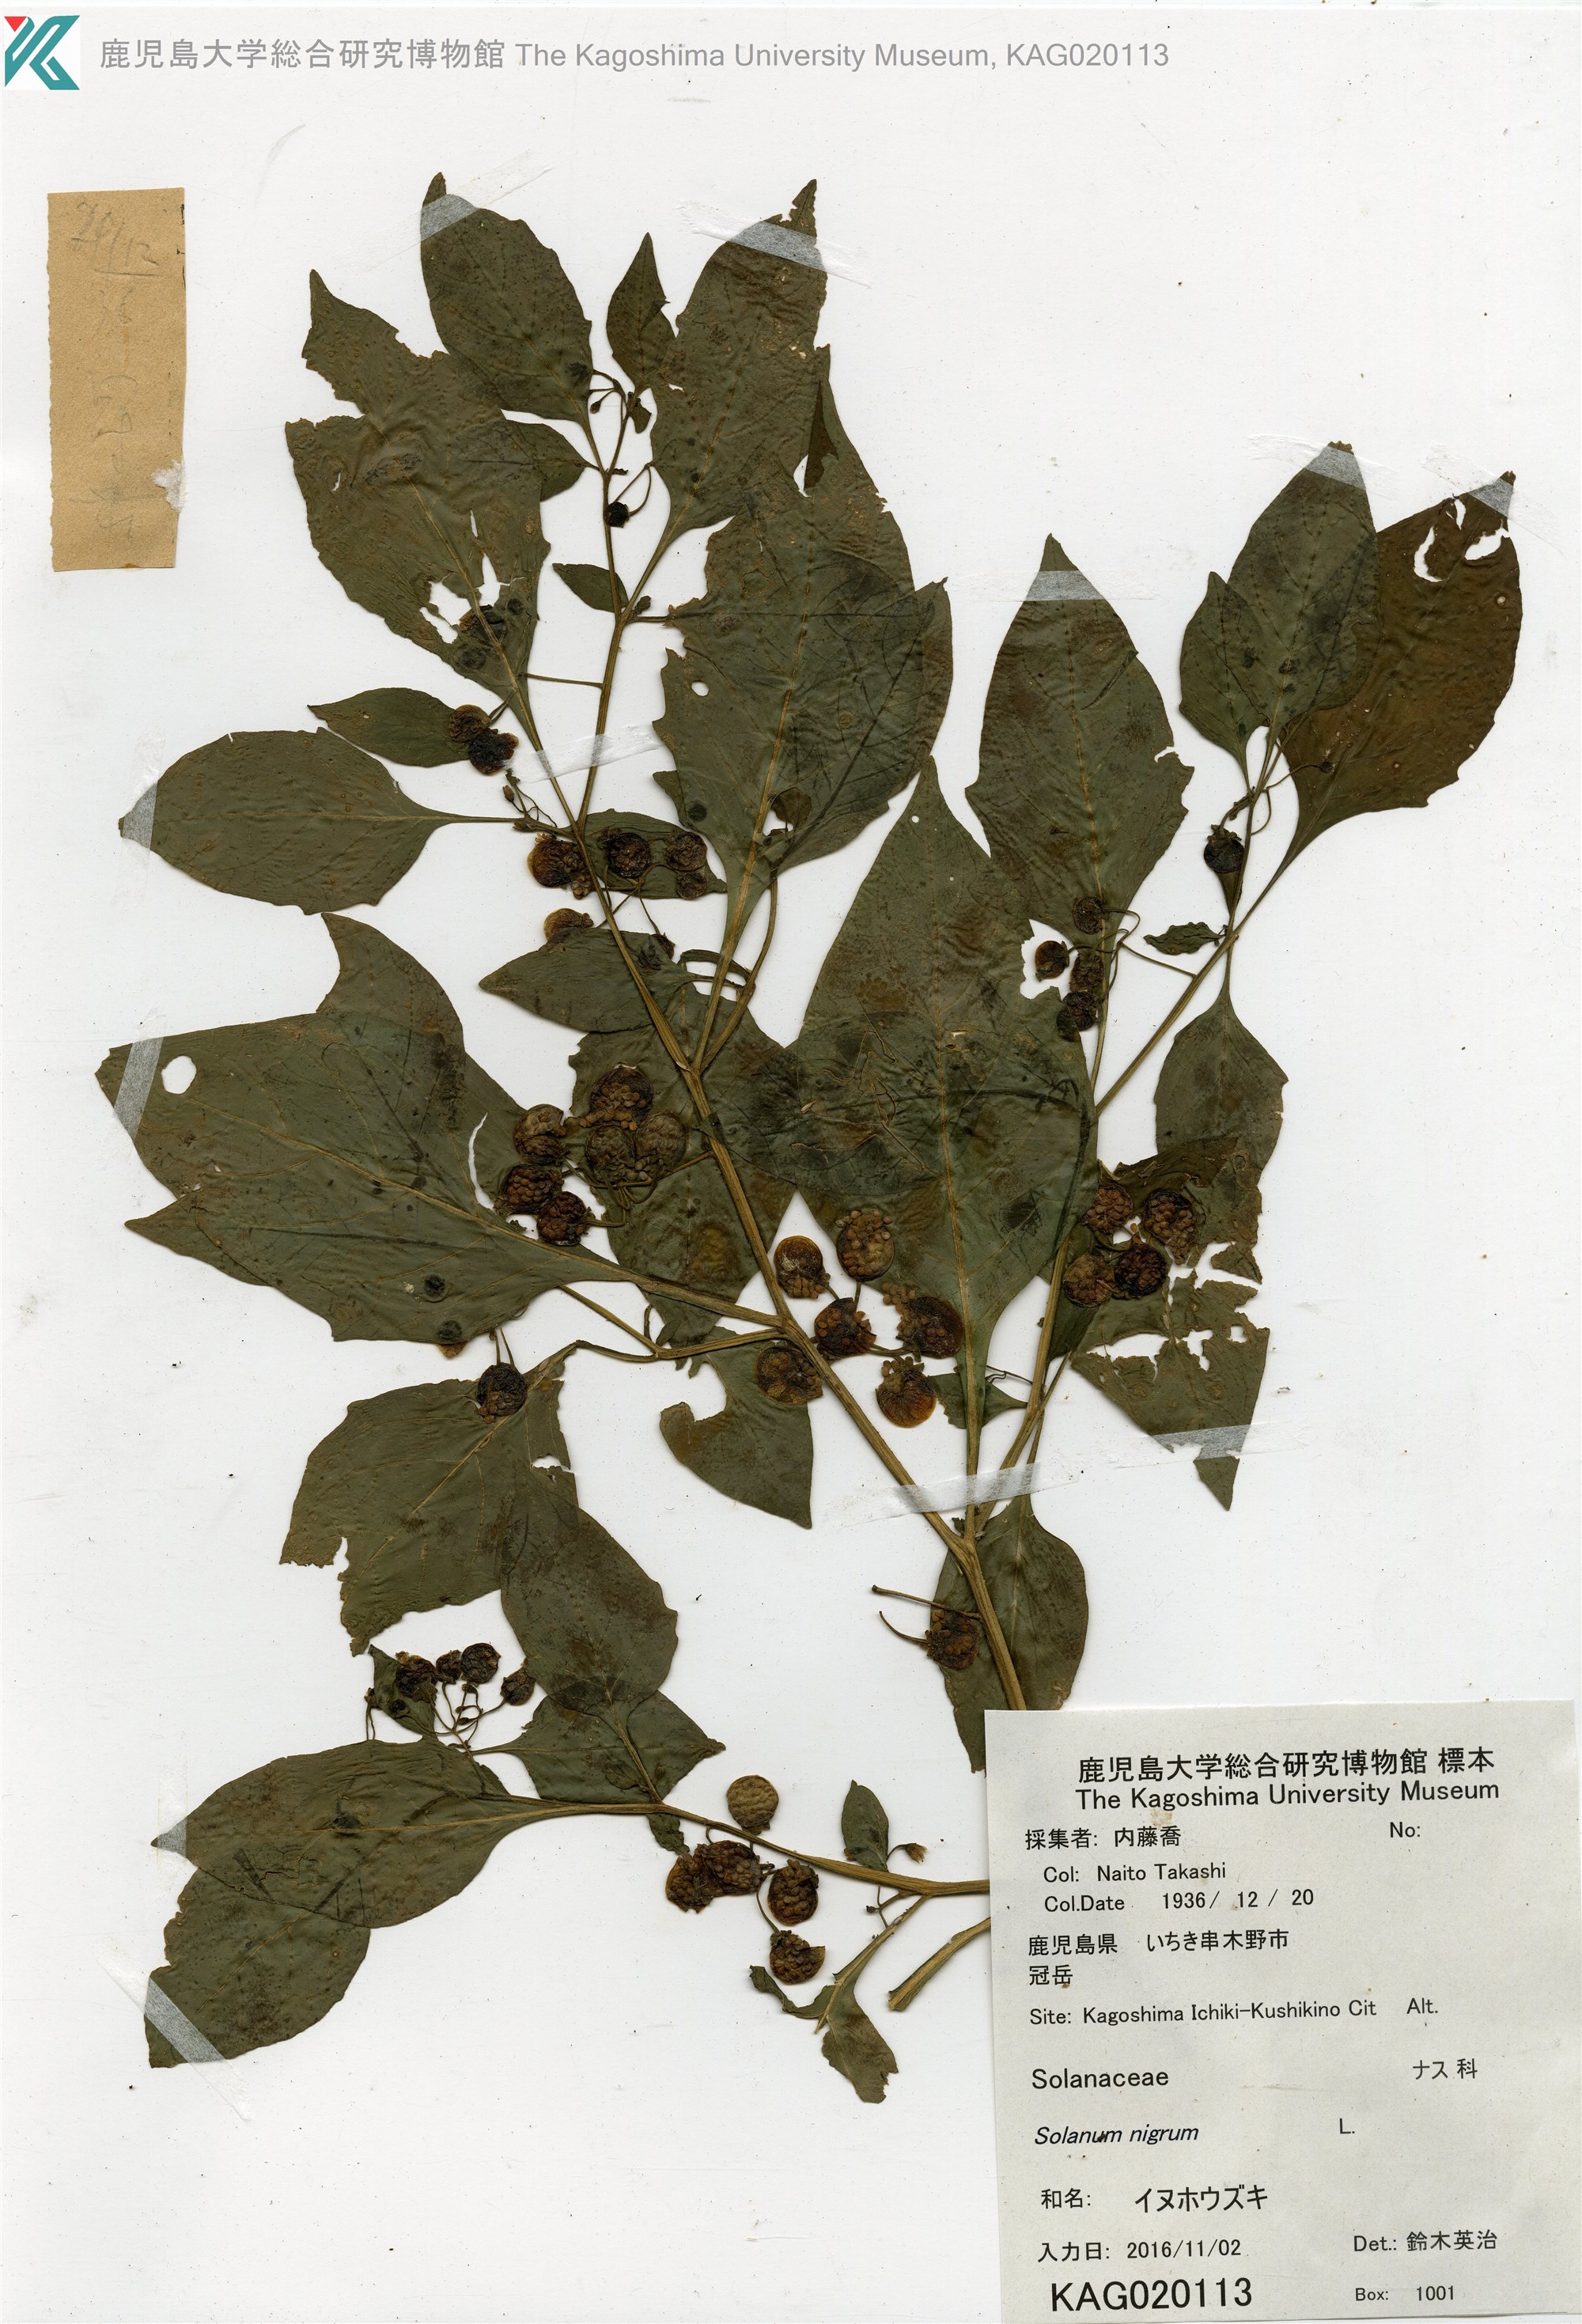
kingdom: Plantae
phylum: Tracheophyta
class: Magnoliopsida
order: Solanales
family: Solanaceae
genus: Solanum
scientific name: Solanum nigrum
